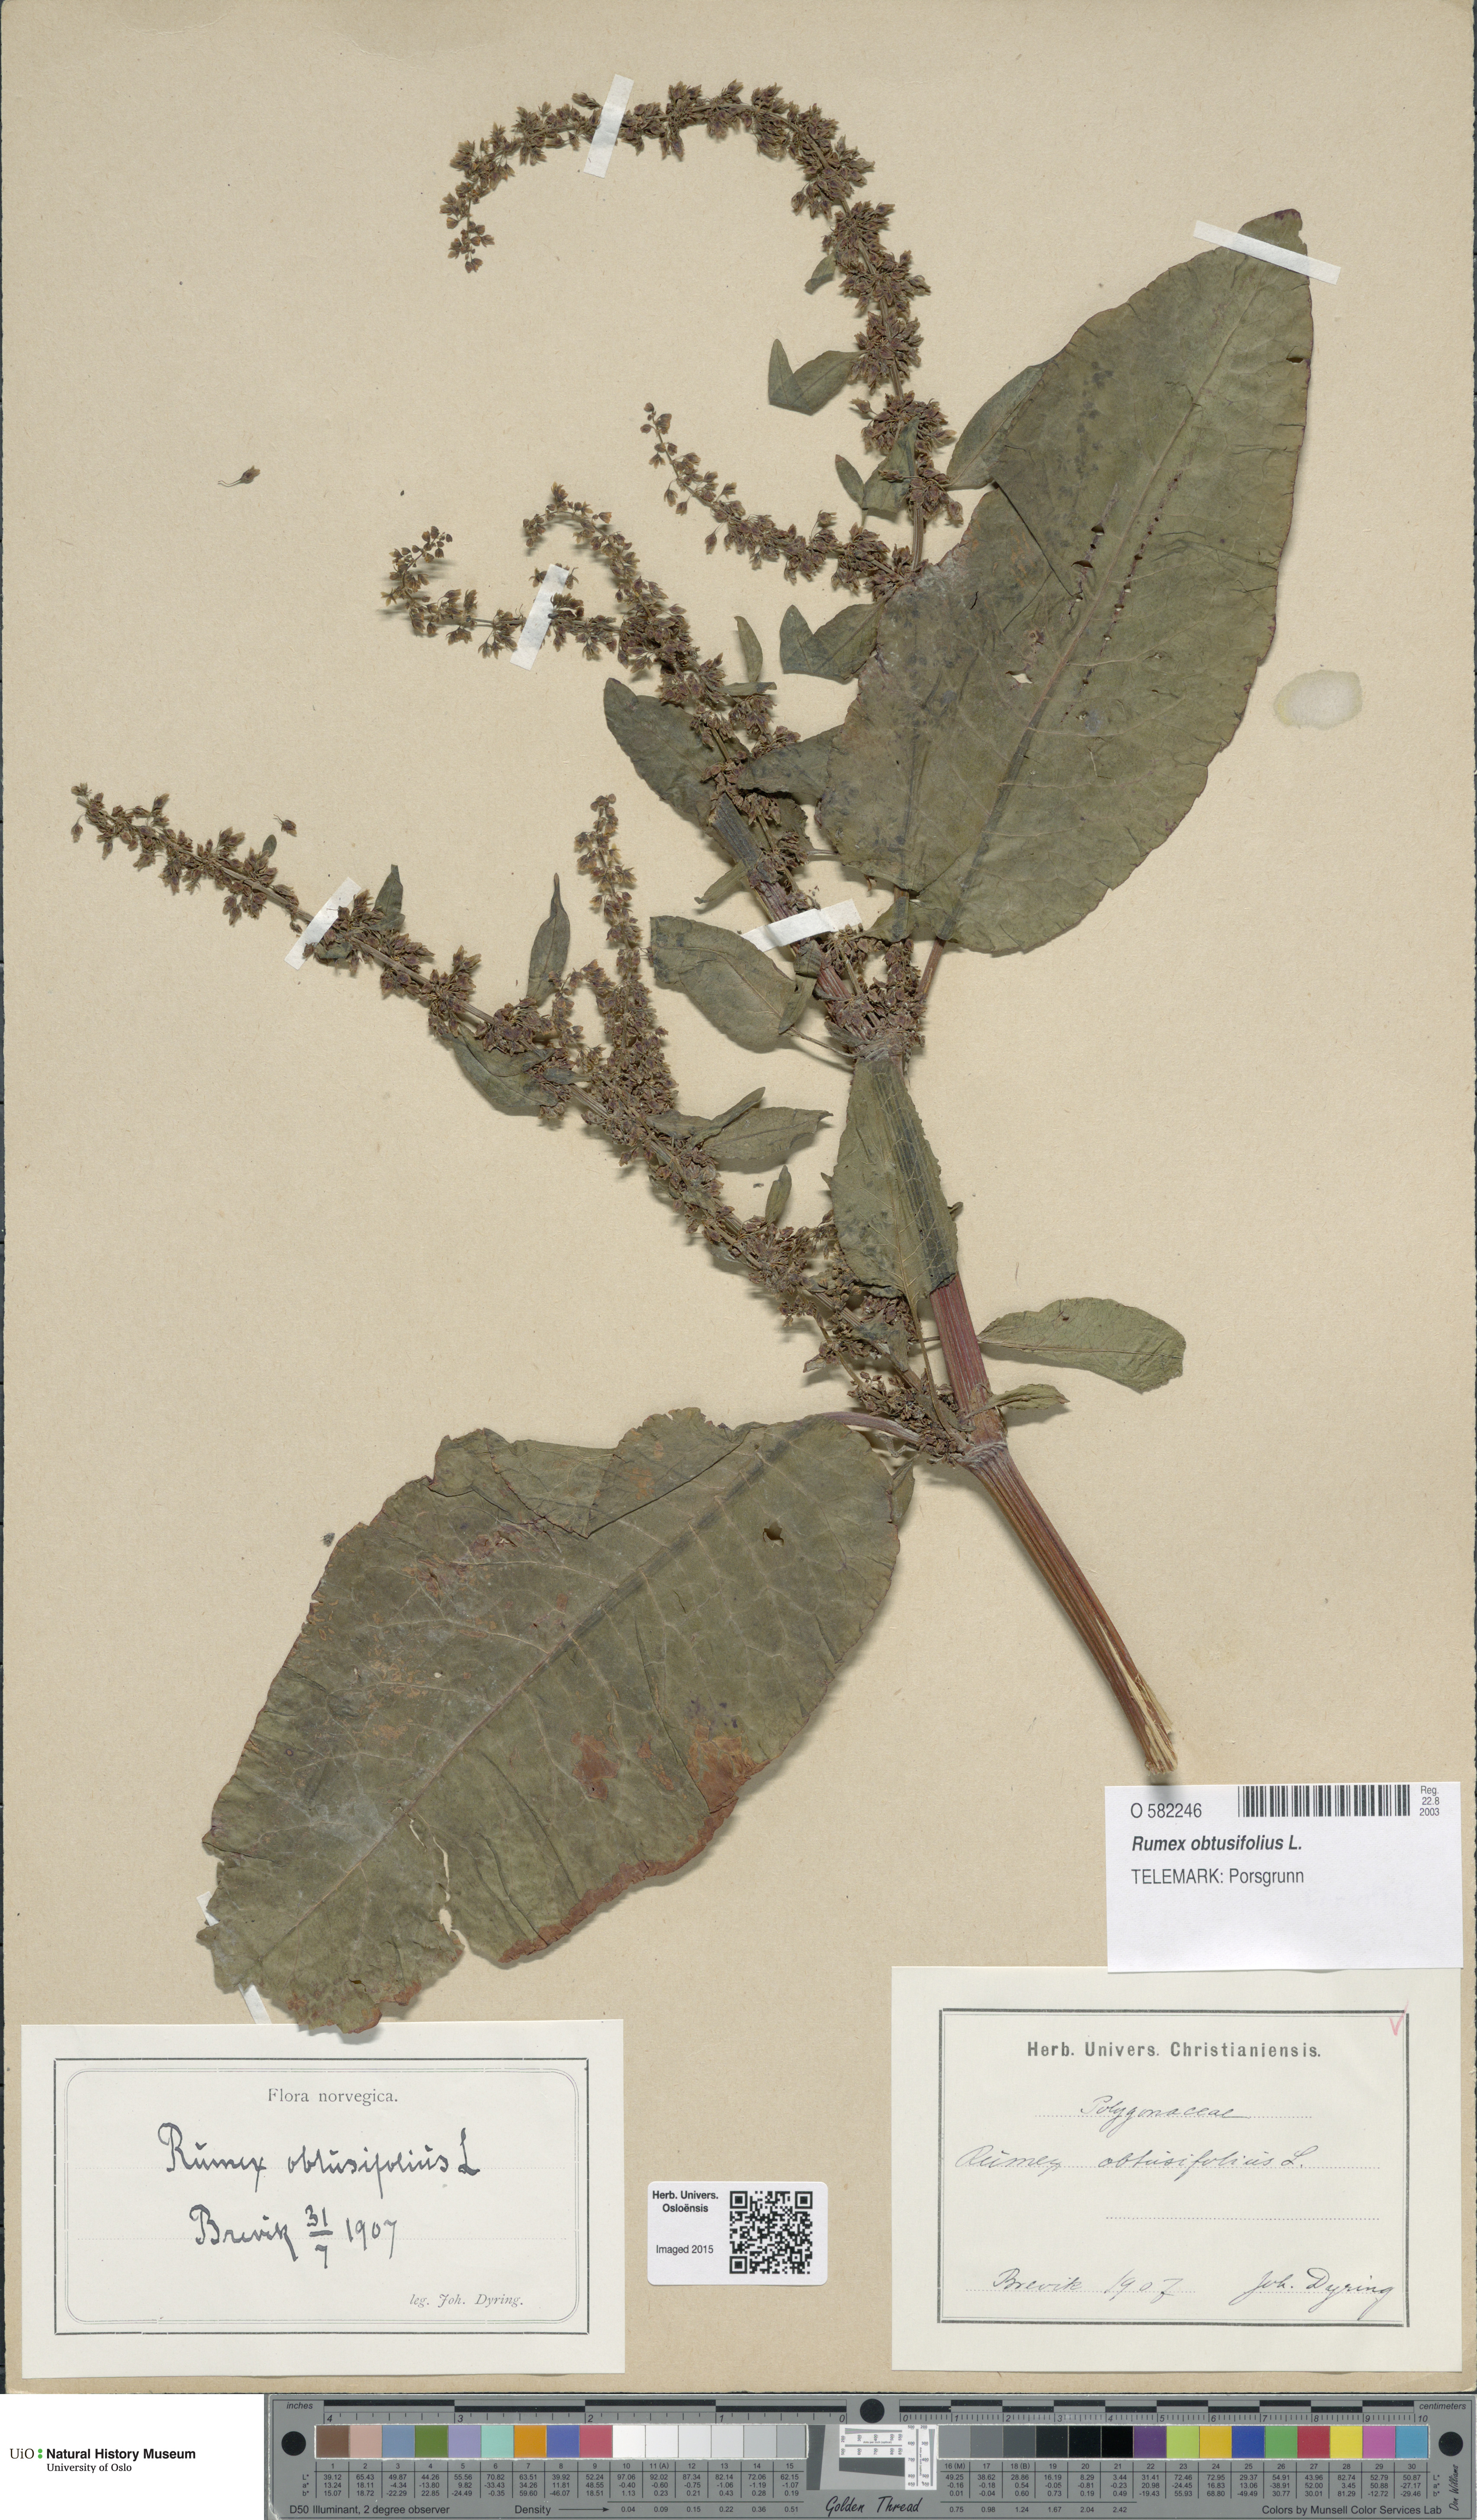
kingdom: Plantae
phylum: Tracheophyta
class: Magnoliopsida
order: Caryophyllales
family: Polygonaceae
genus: Rumex
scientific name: Rumex obtusifolius
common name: Bitter dock
